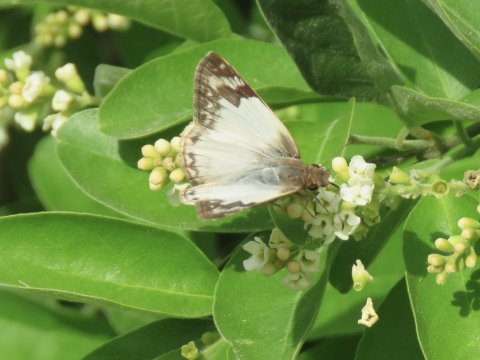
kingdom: Animalia
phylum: Arthropoda
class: Insecta
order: Lepidoptera
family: Hesperiidae
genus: Heliopetes
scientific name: Heliopetes laviana
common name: Laviana White-Skipper
